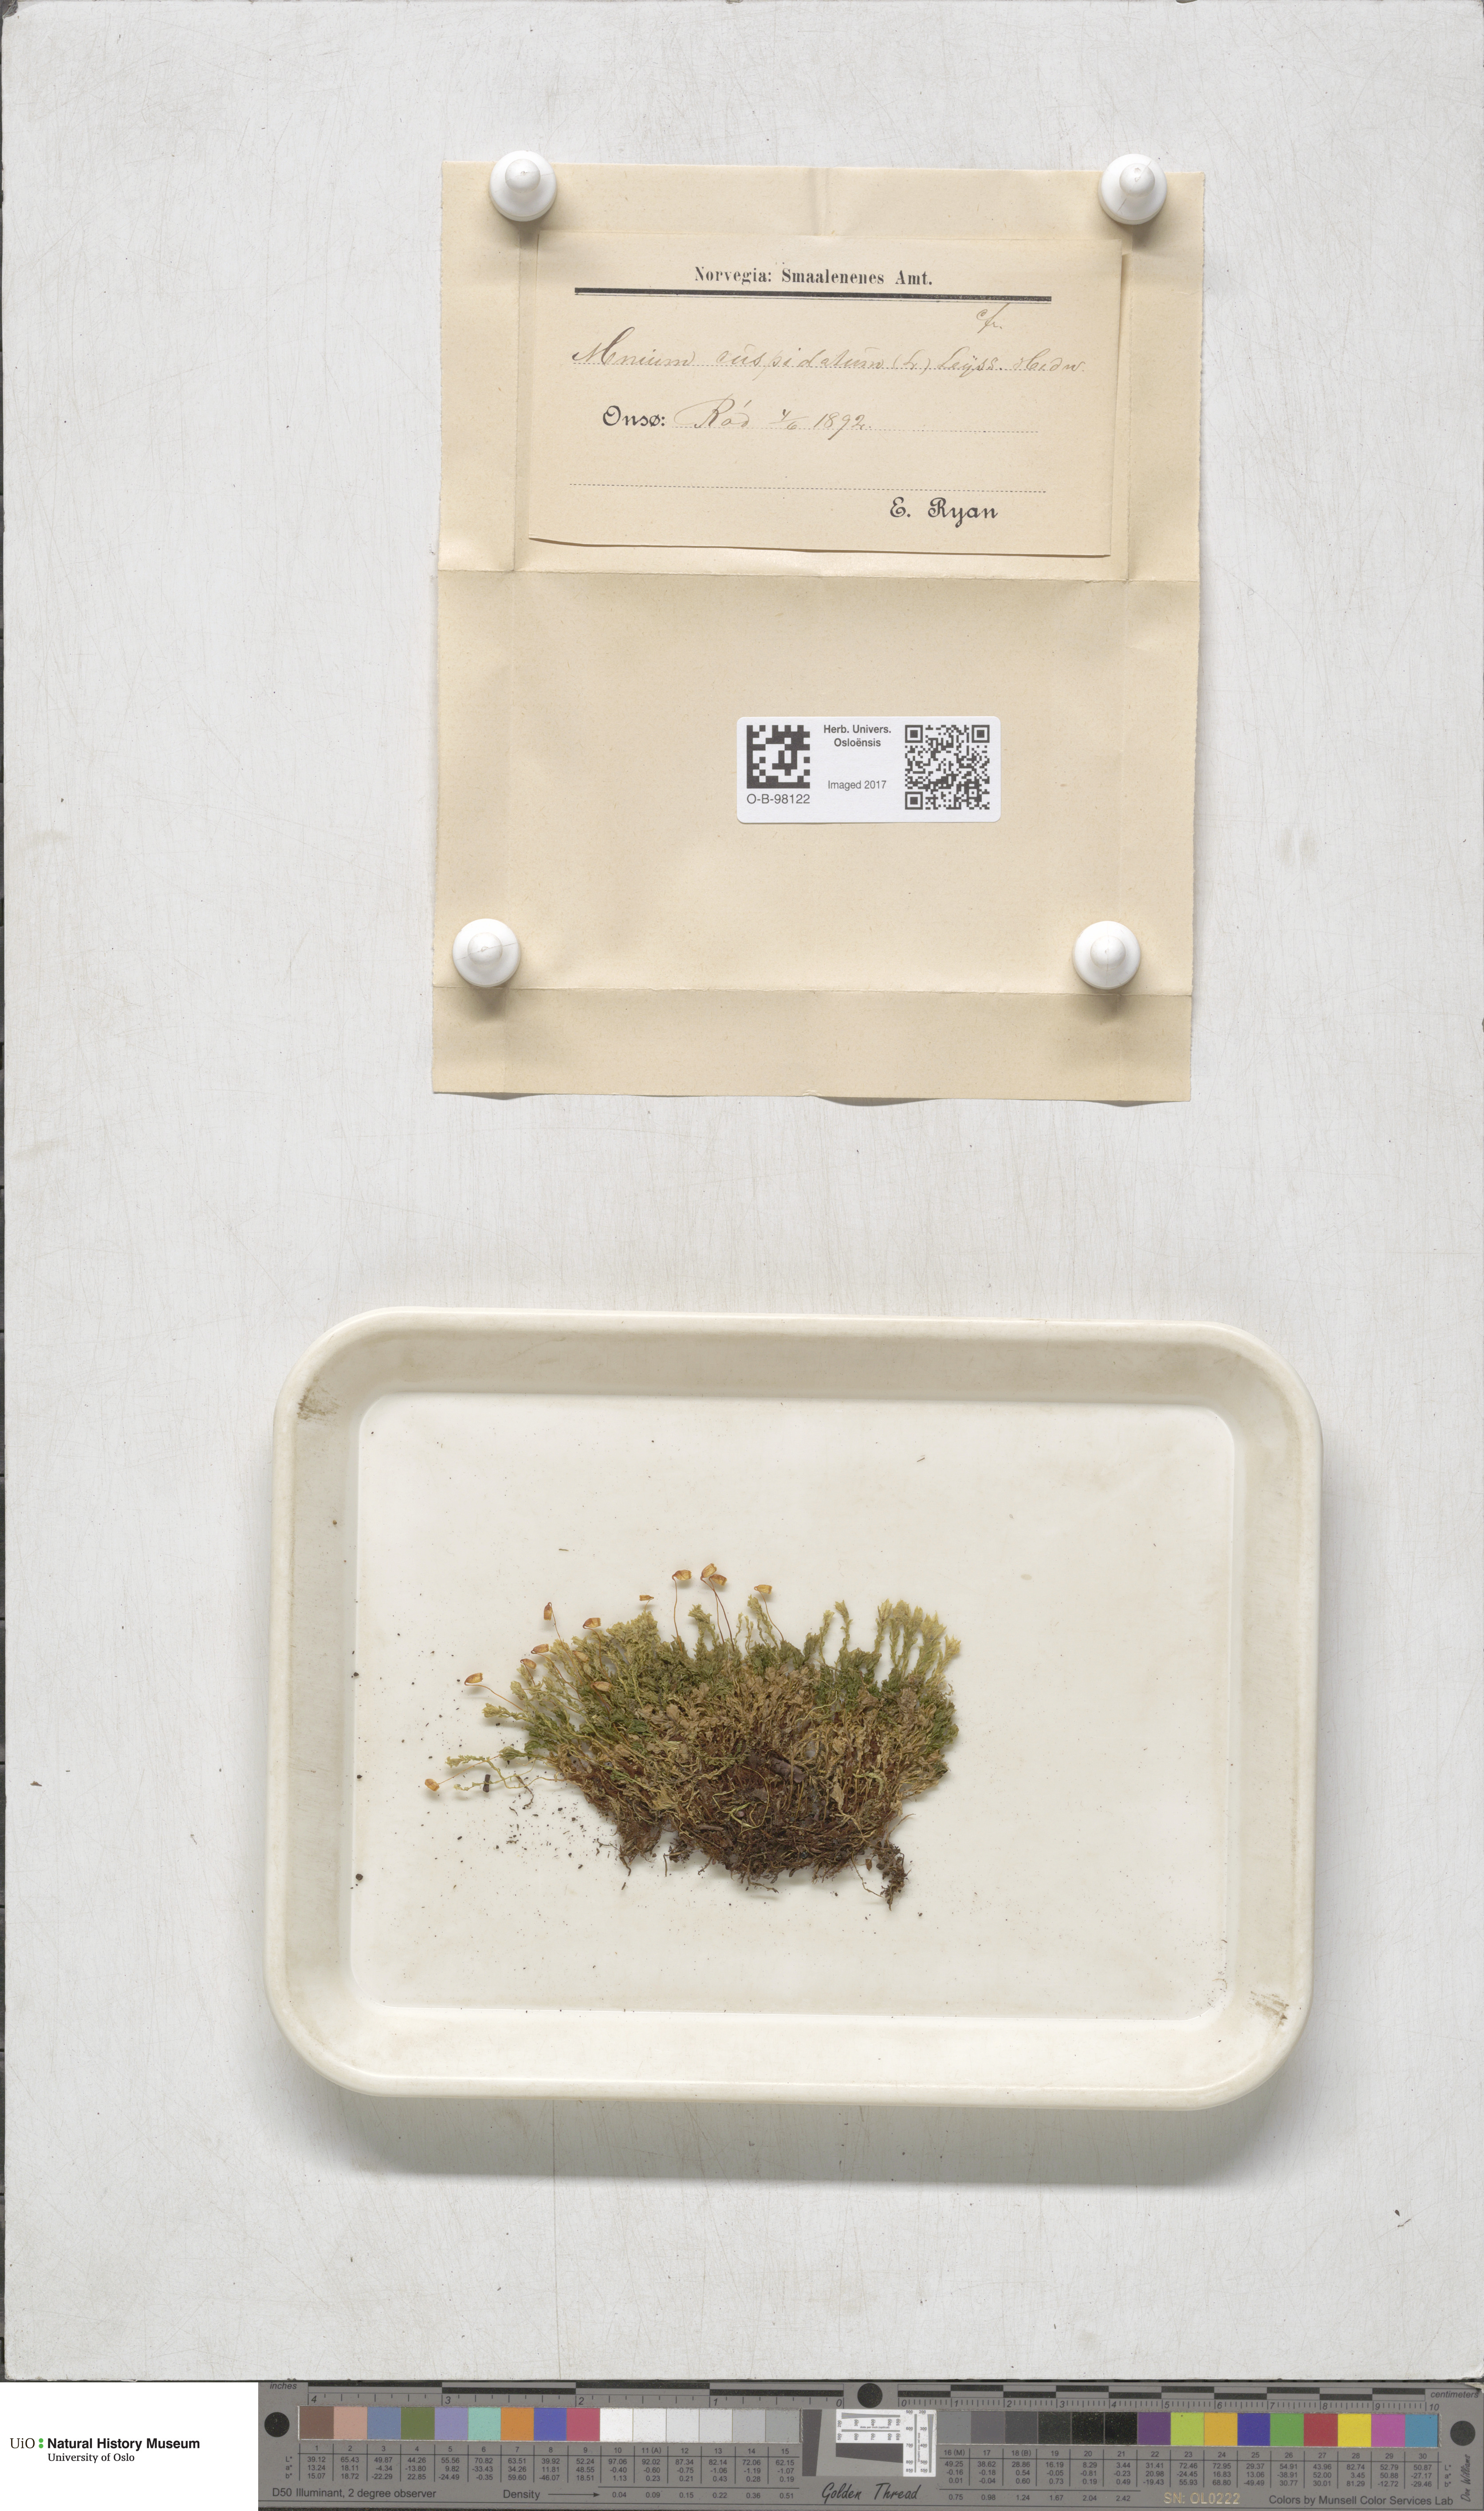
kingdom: Plantae
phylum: Bryophyta
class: Bryopsida
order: Bryales
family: Mniaceae
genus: Plagiomnium
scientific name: Plagiomnium cuspidatum
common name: Woodsy leafy moss
